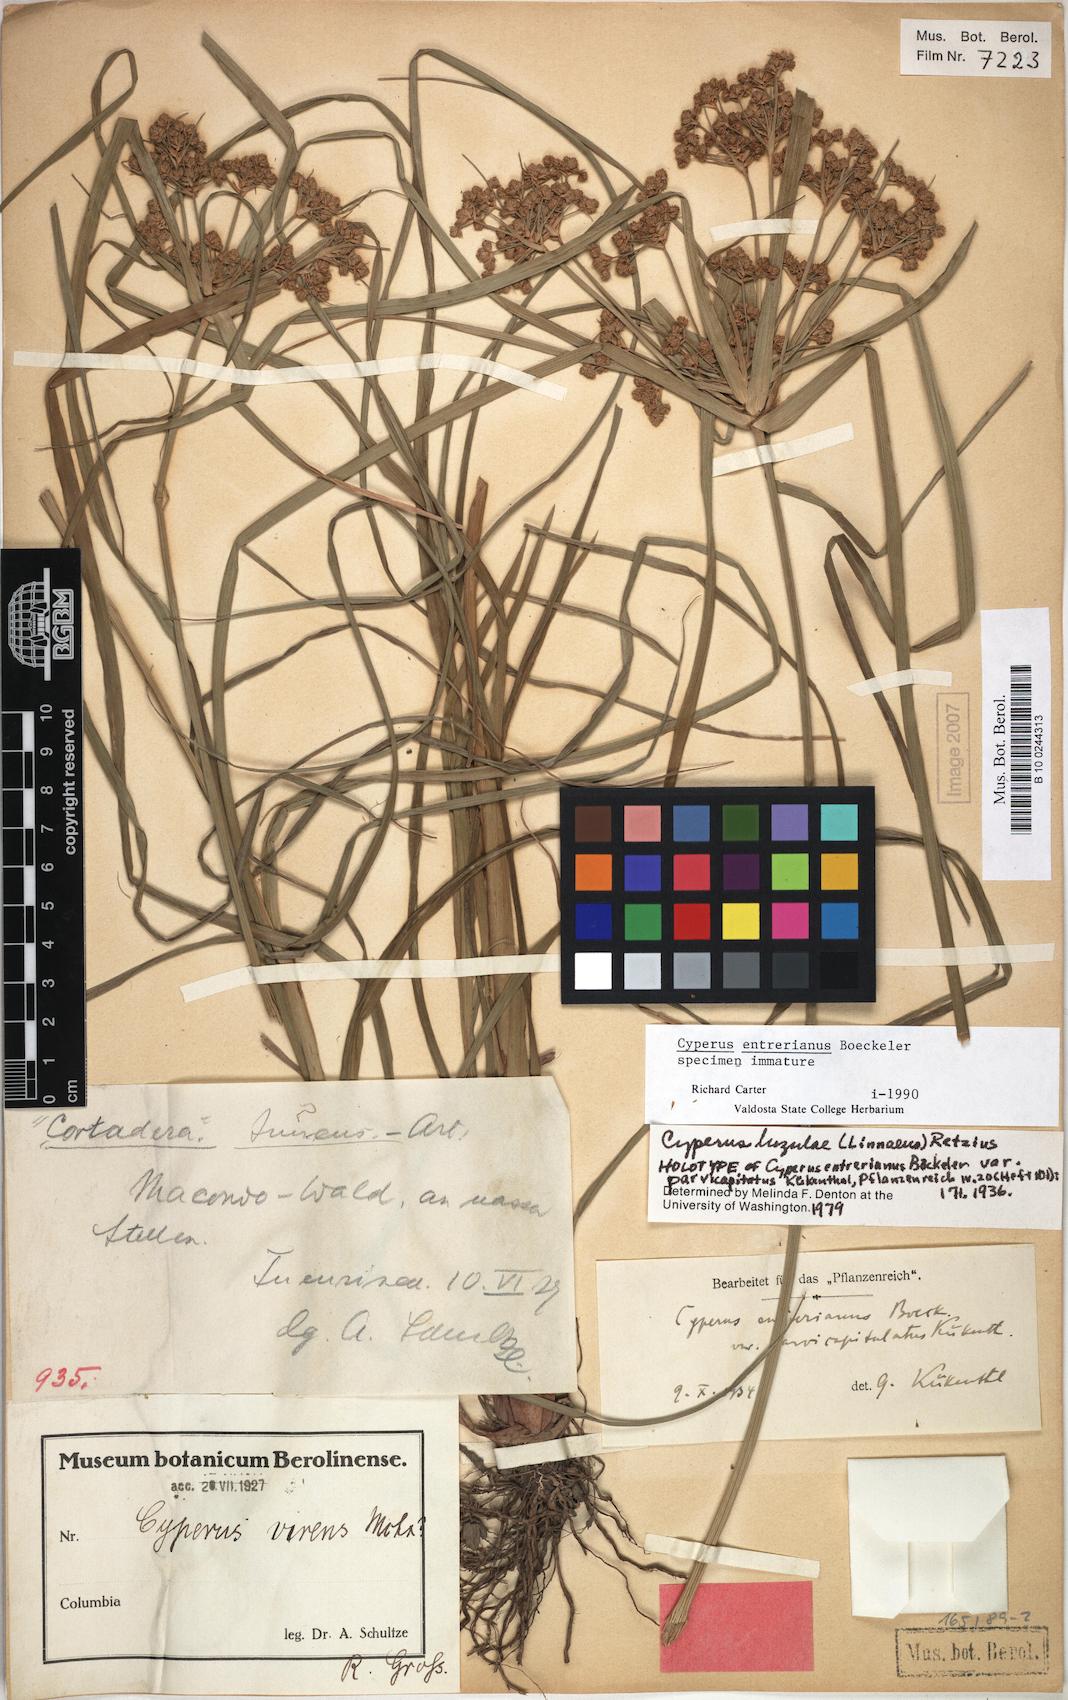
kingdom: Plantae
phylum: Tracheophyta
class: Liliopsida
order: Poales
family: Cyperaceae
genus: Cyperus
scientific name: Cyperus luzulae
